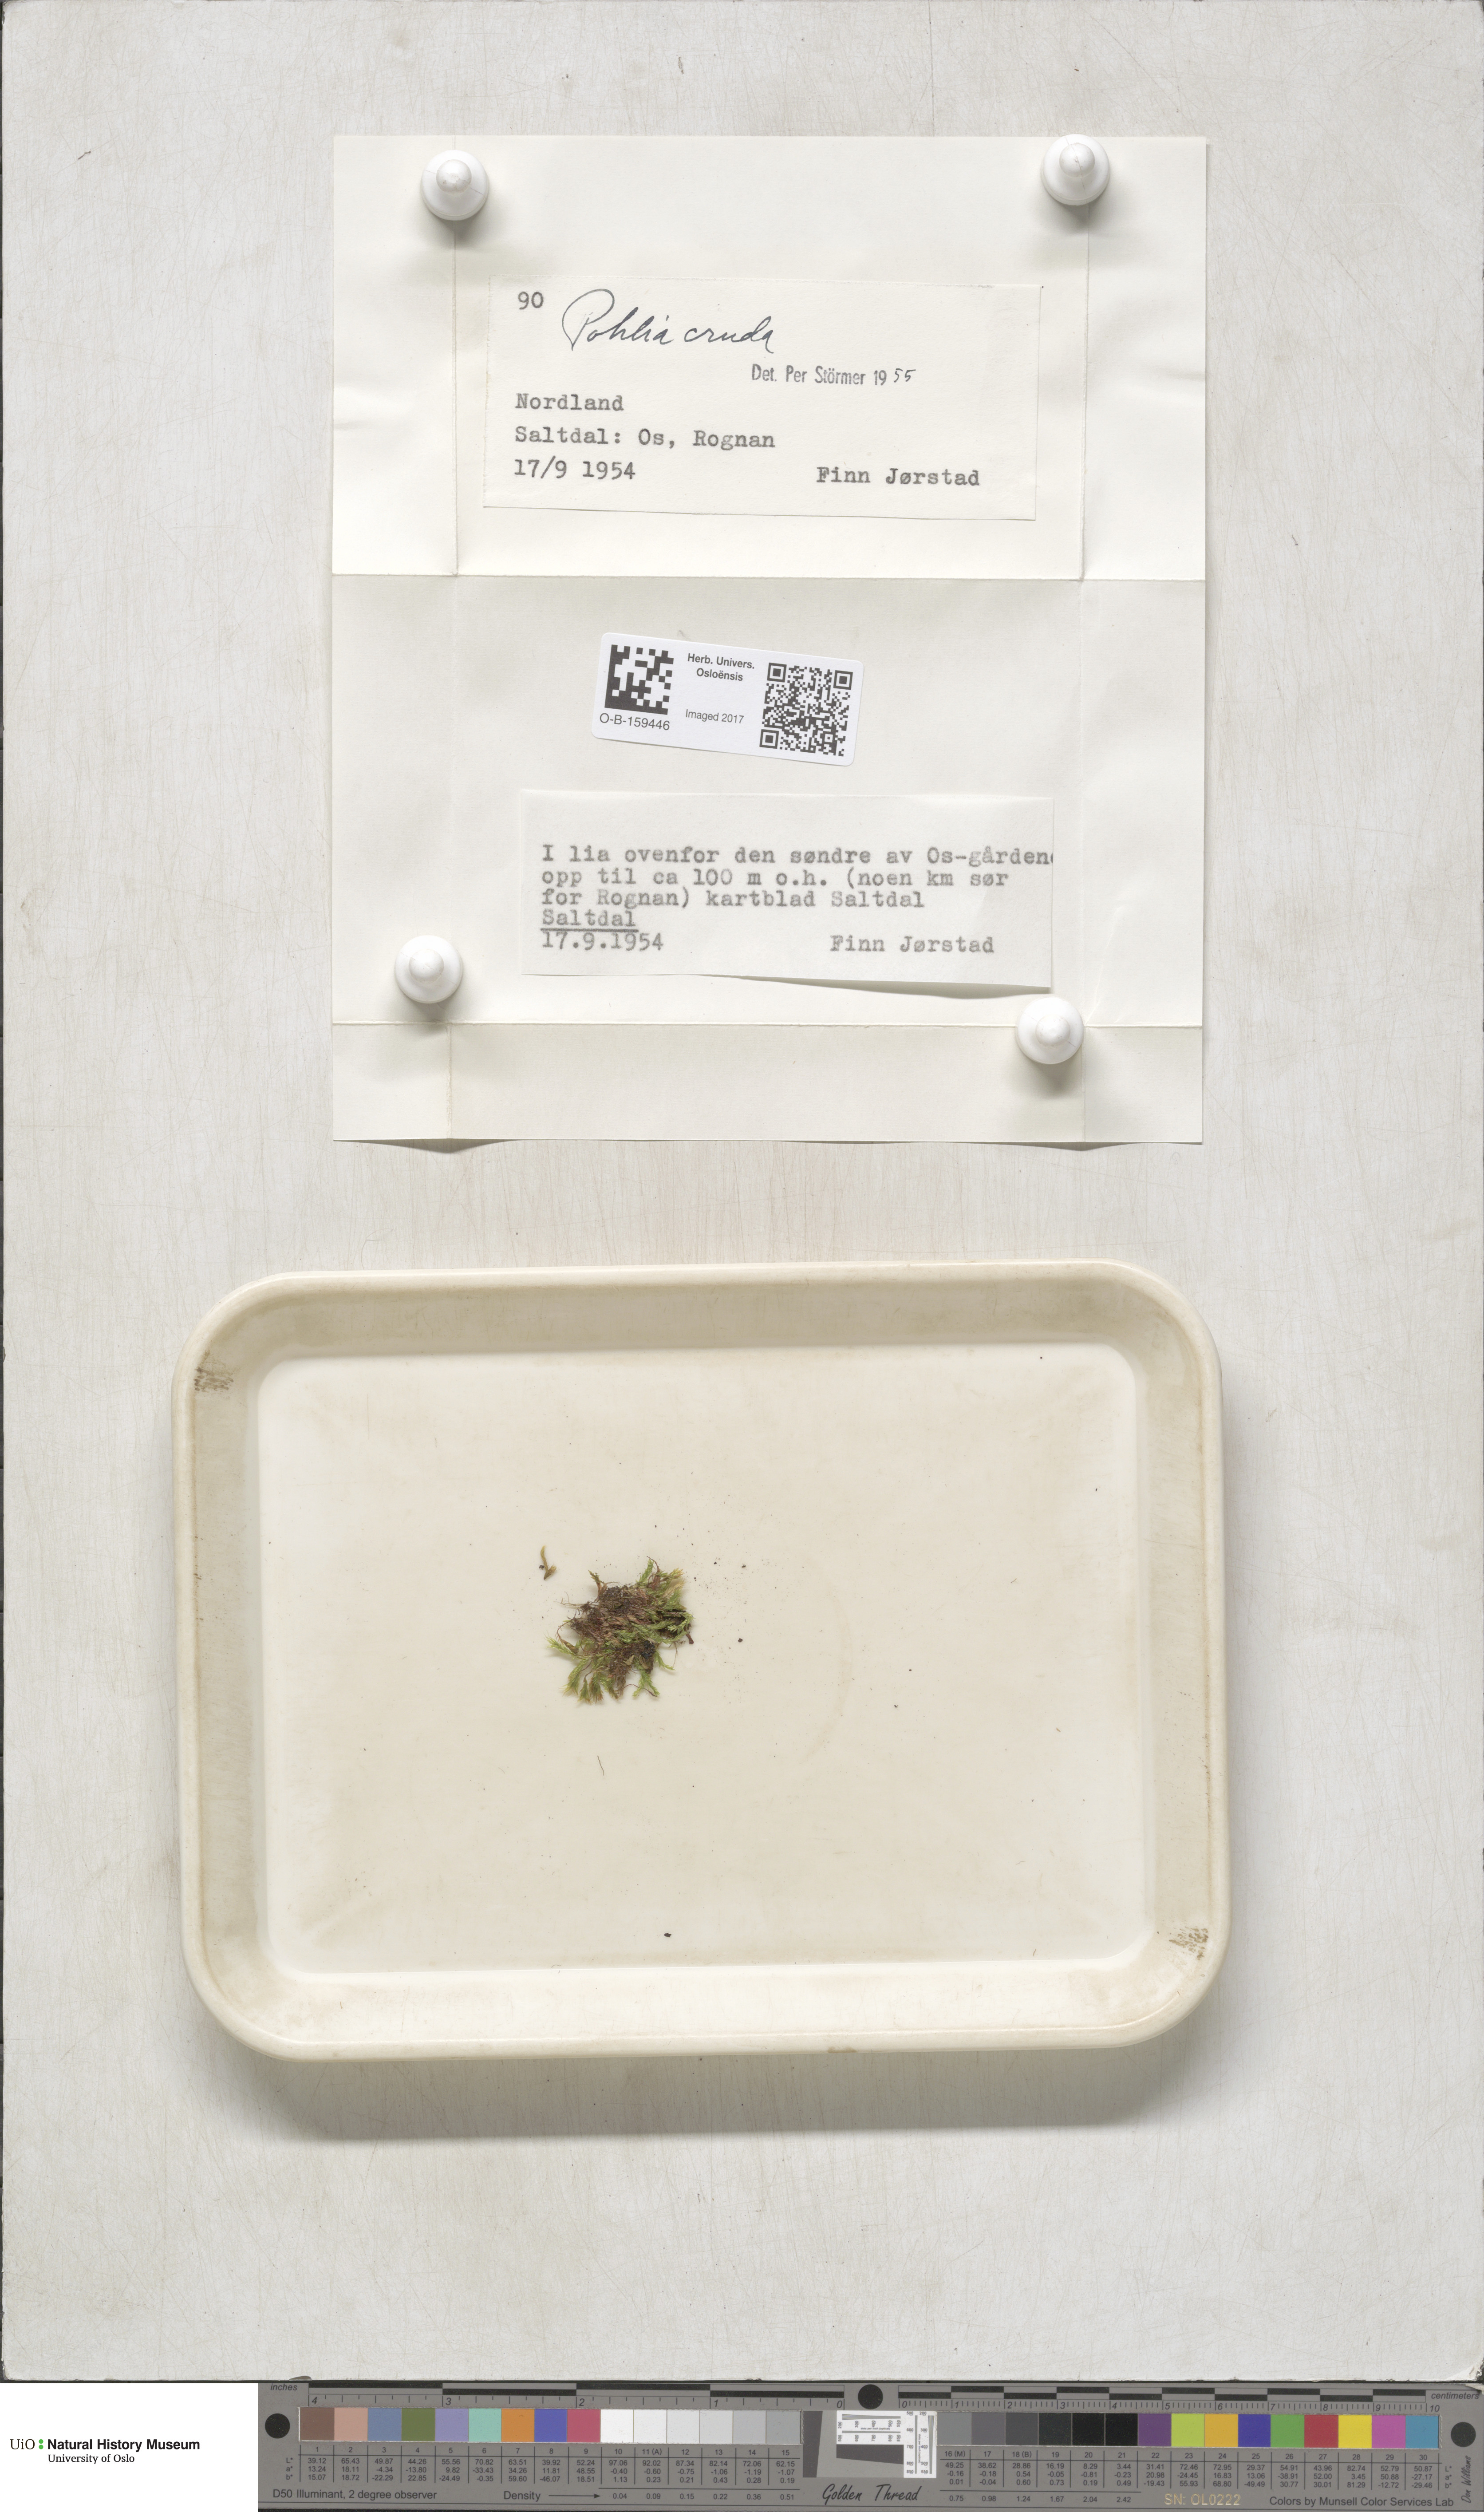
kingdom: Plantae
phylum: Bryophyta
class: Bryopsida
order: Bryales
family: Mniaceae
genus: Pohlia
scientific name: Pohlia cruda
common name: Opal nodding moss
